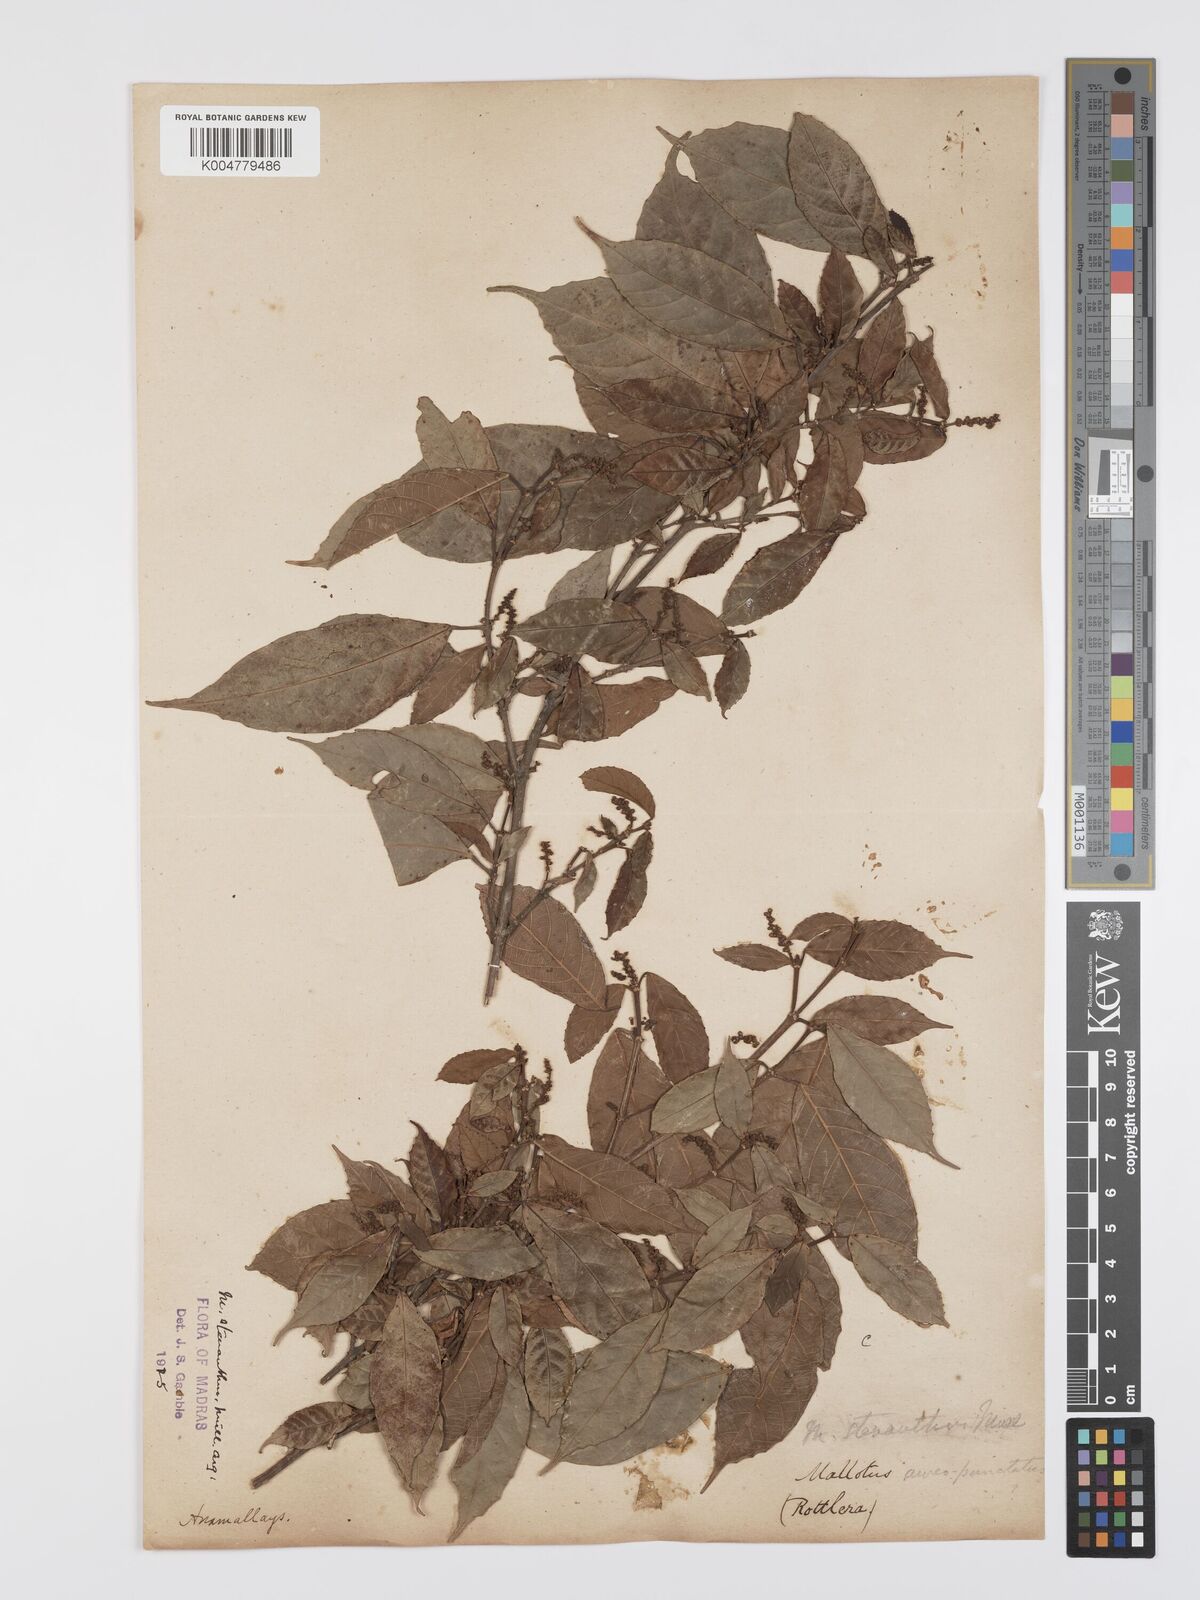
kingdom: Plantae
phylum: Tracheophyta
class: Magnoliopsida
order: Malpighiales
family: Euphorbiaceae
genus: Mallotus
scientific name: Mallotus resinosus
